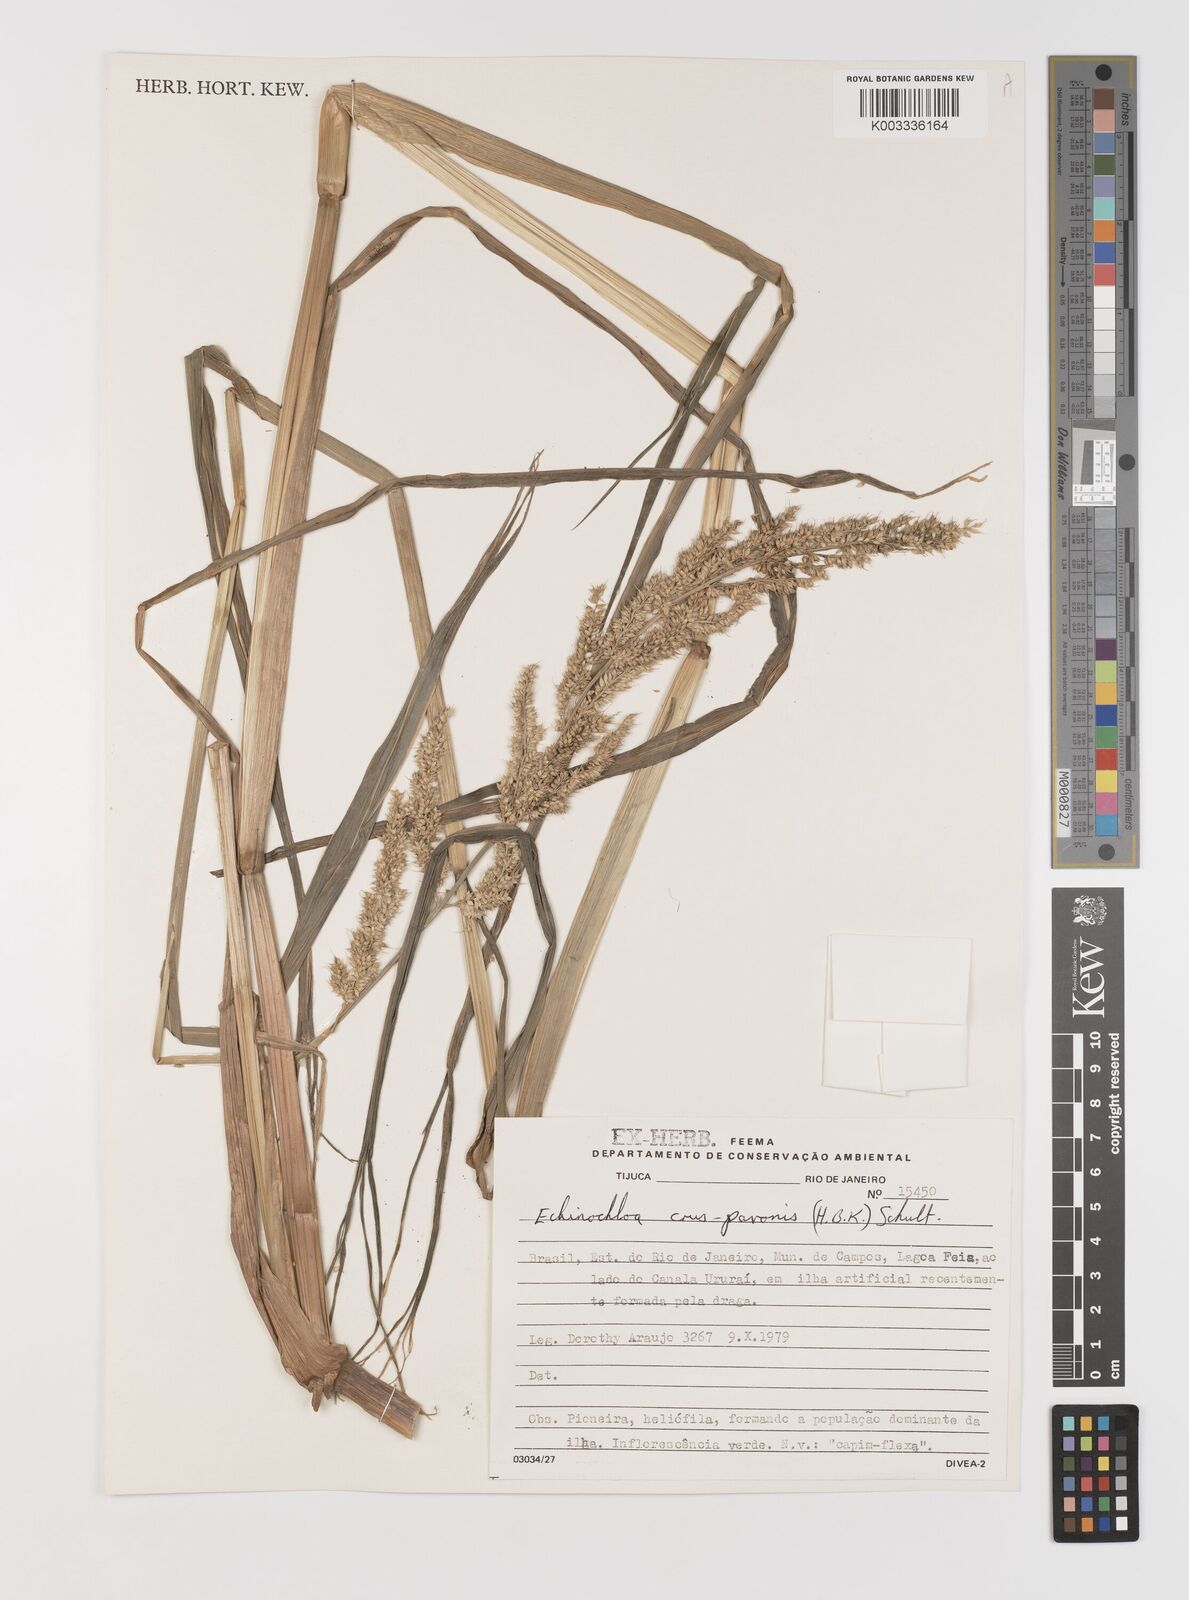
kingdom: Plantae
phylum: Tracheophyta
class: Liliopsida
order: Poales
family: Poaceae
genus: Echinochloa
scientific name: Echinochloa crus-pavonis
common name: Gulf cockspur grass
